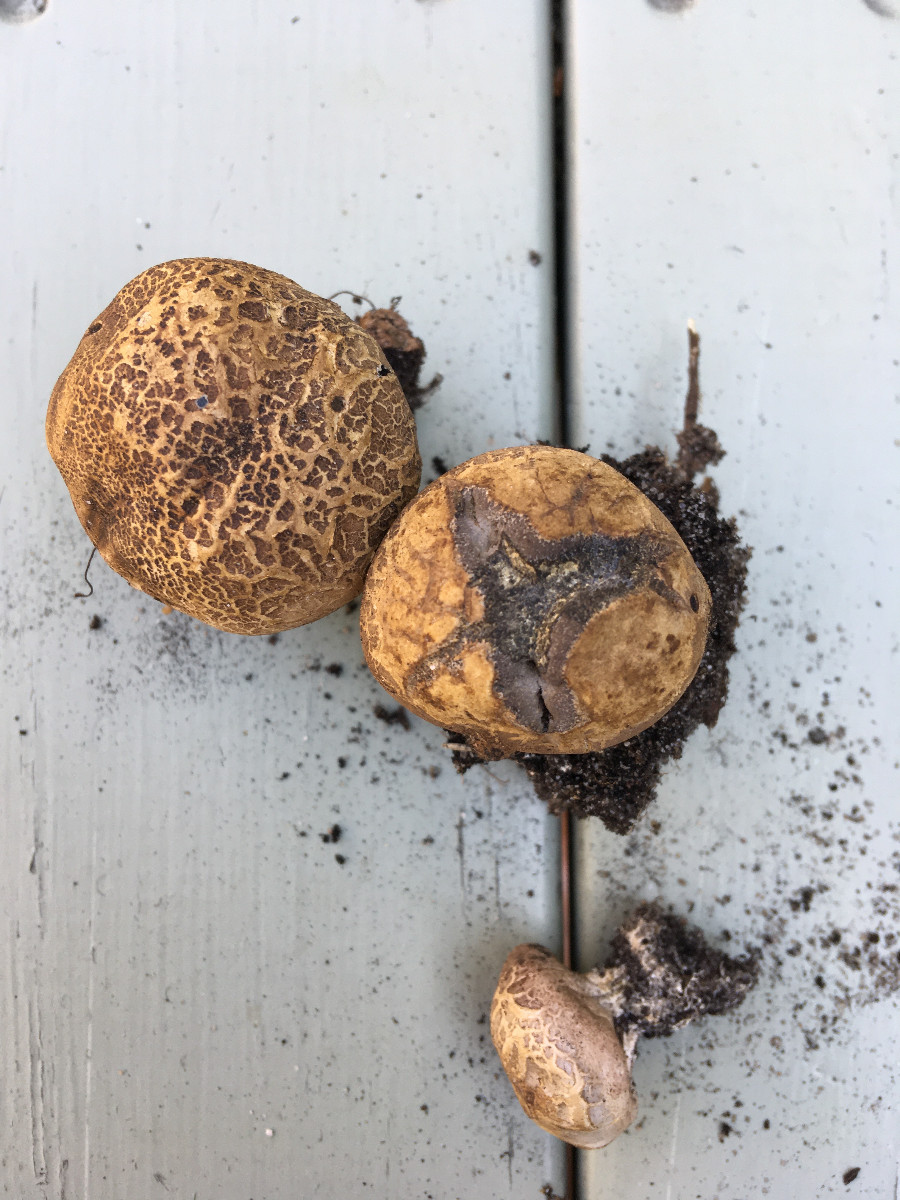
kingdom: Fungi
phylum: Basidiomycota
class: Agaricomycetes
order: Boletales
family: Sclerodermataceae
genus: Scleroderma
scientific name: Scleroderma
